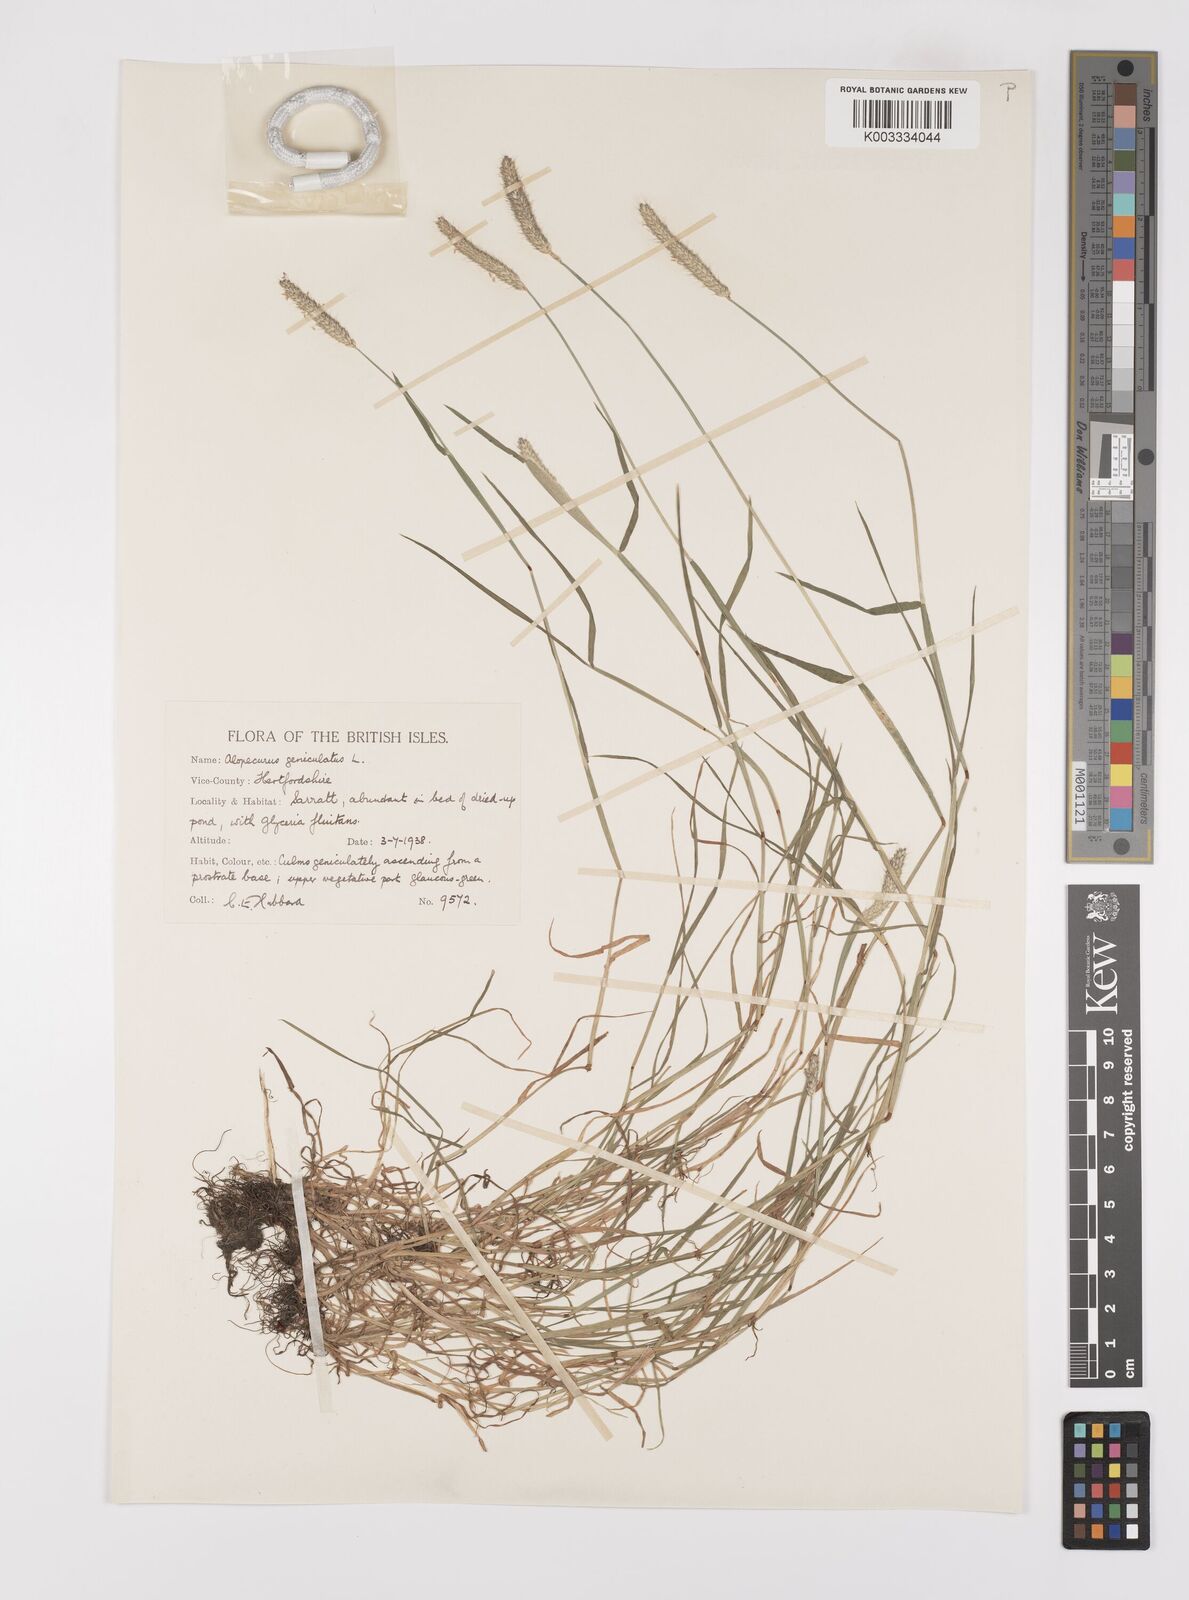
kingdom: Plantae
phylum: Tracheophyta
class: Liliopsida
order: Poales
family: Poaceae
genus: Alopecurus
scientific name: Alopecurus geniculatus
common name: Water foxtail
